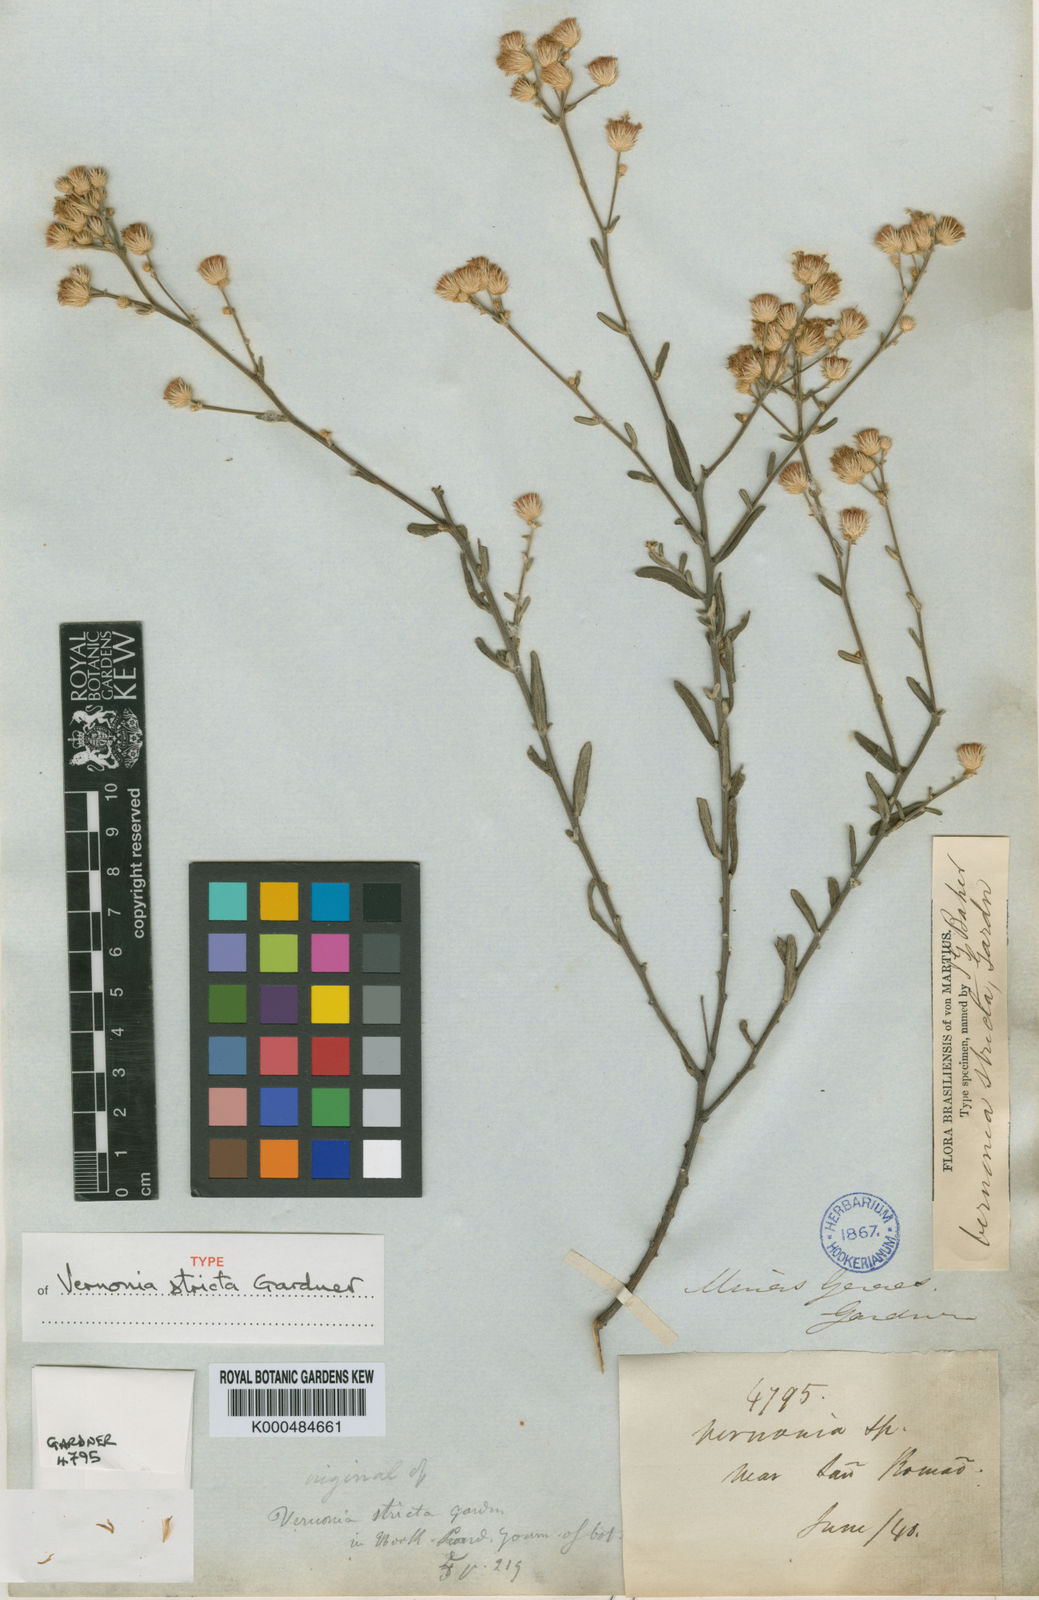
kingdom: Plantae
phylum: Tracheophyta
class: Magnoliopsida
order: Asterales
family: Asteraceae
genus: Echinocoryne
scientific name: Echinocoryne stricta
